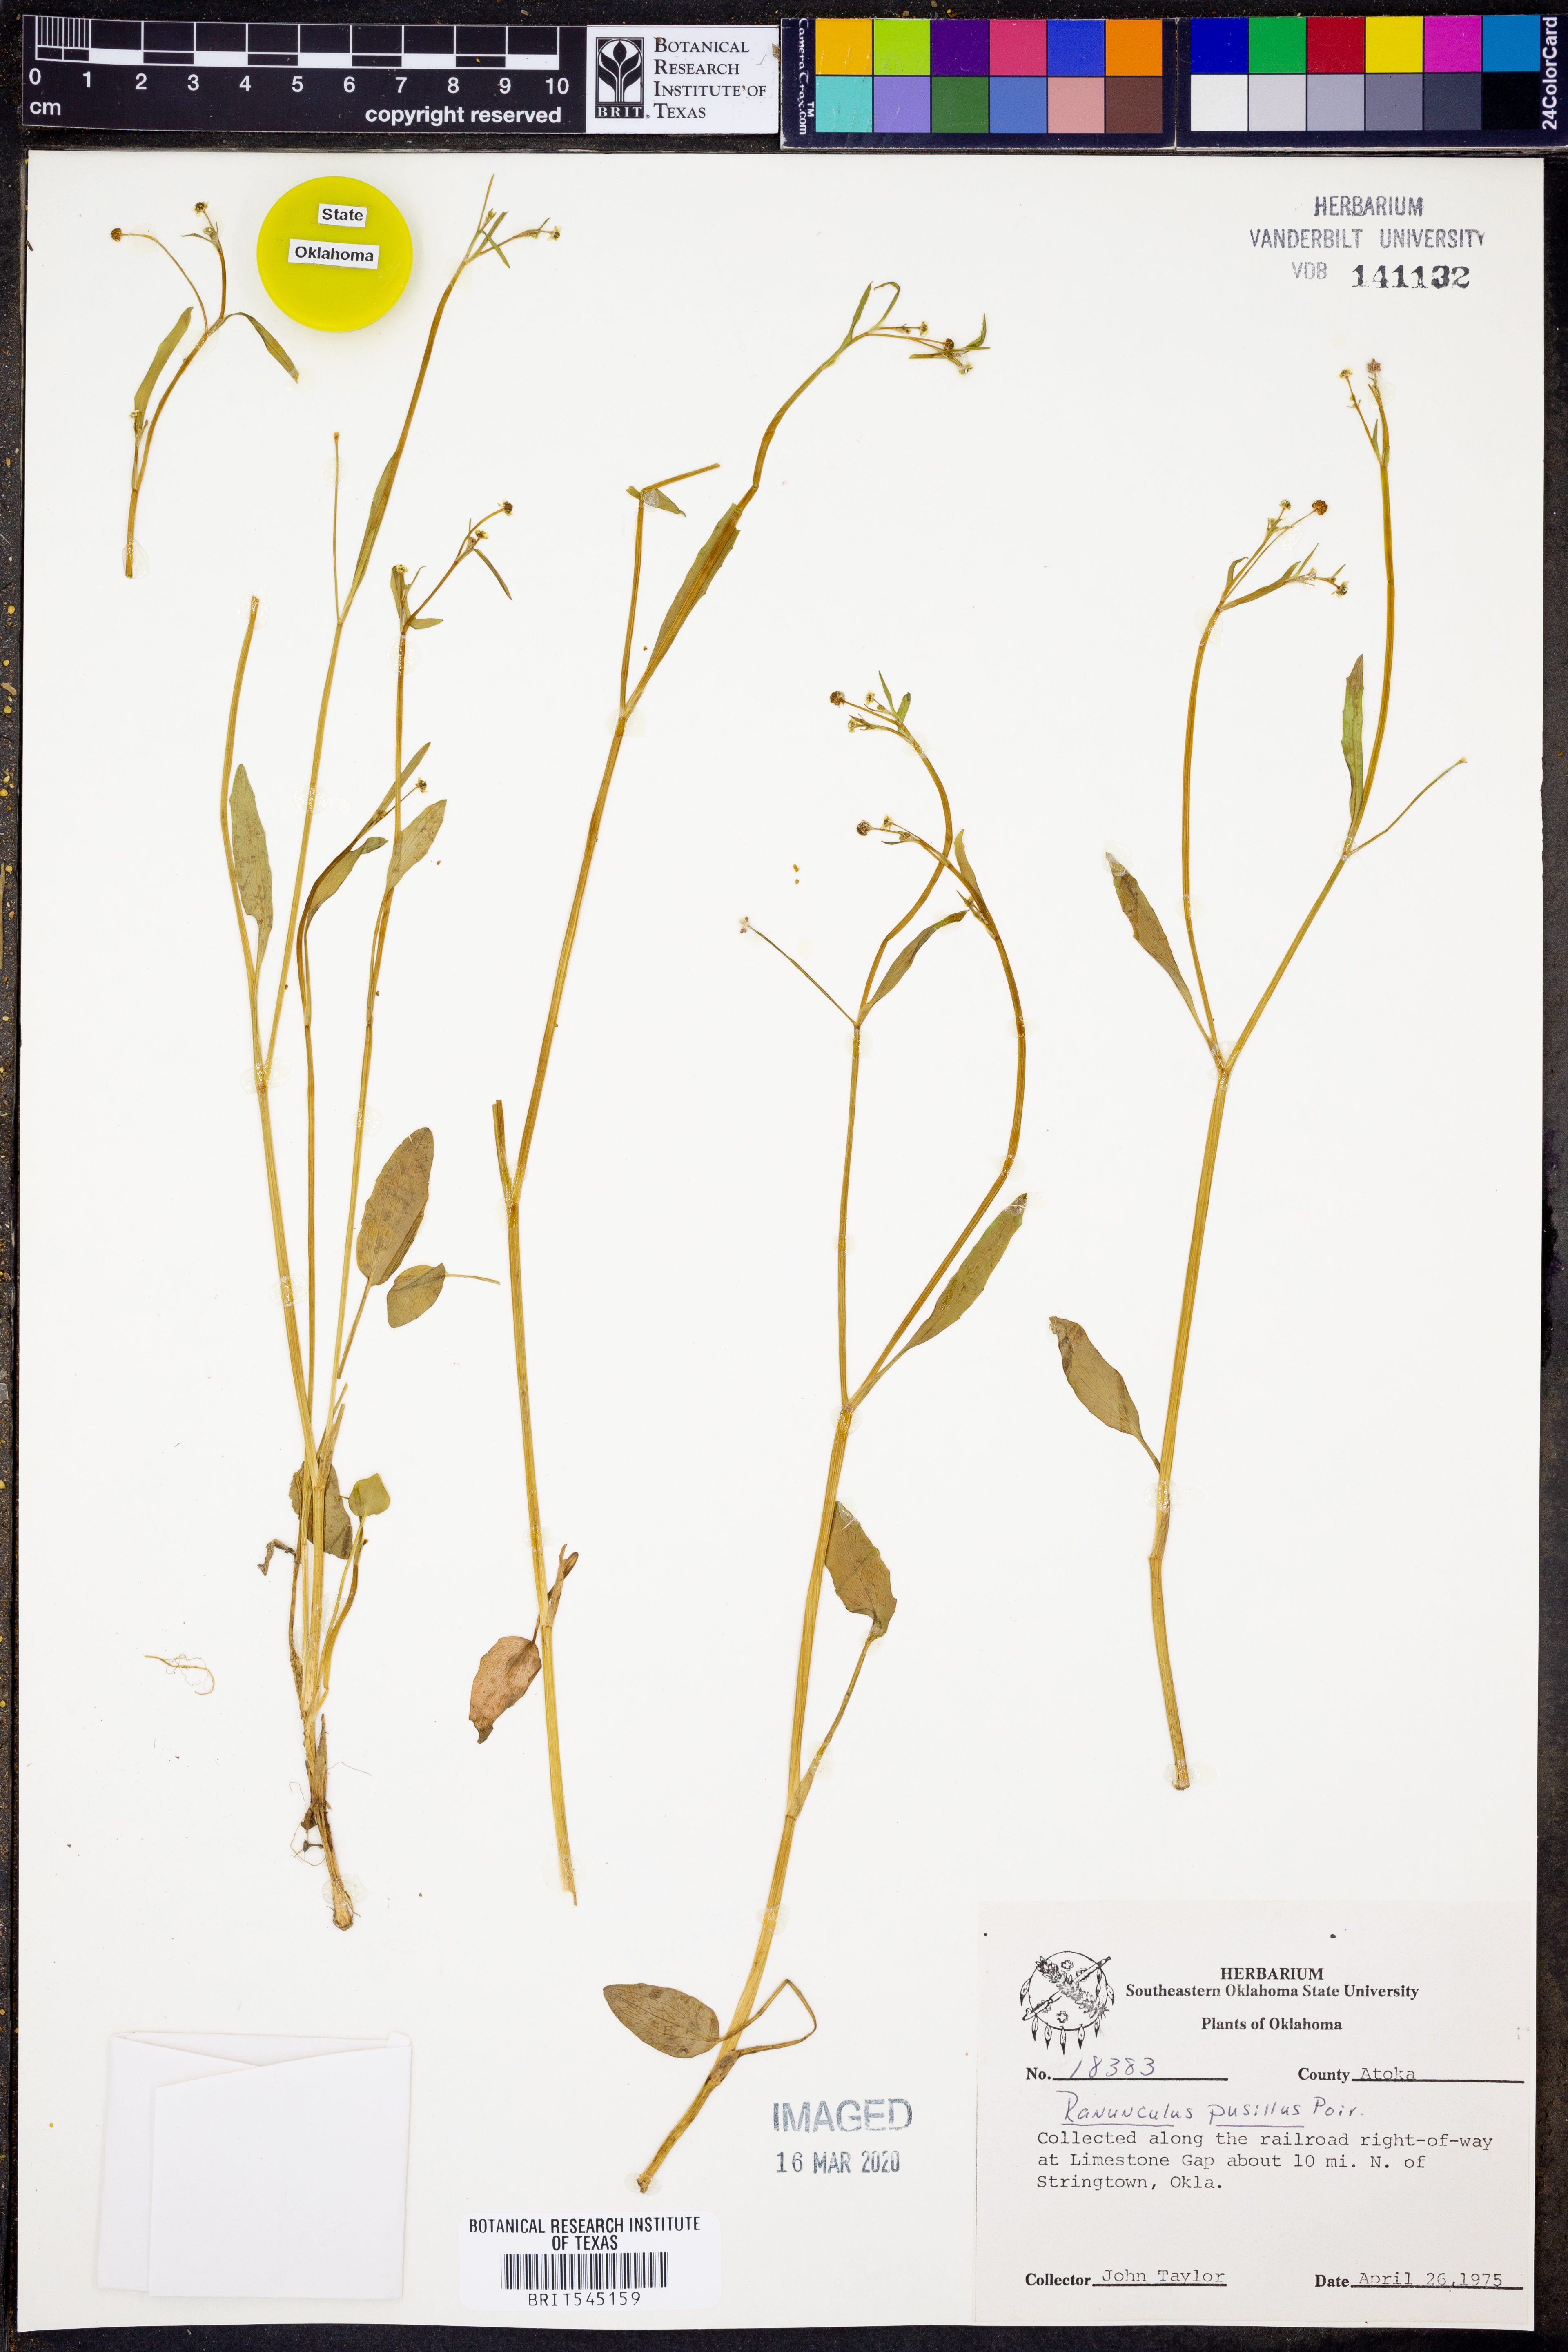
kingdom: Plantae
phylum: Tracheophyta
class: Magnoliopsida
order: Ranunculales
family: Ranunculaceae
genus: Ranunculus
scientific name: Ranunculus pusillus
